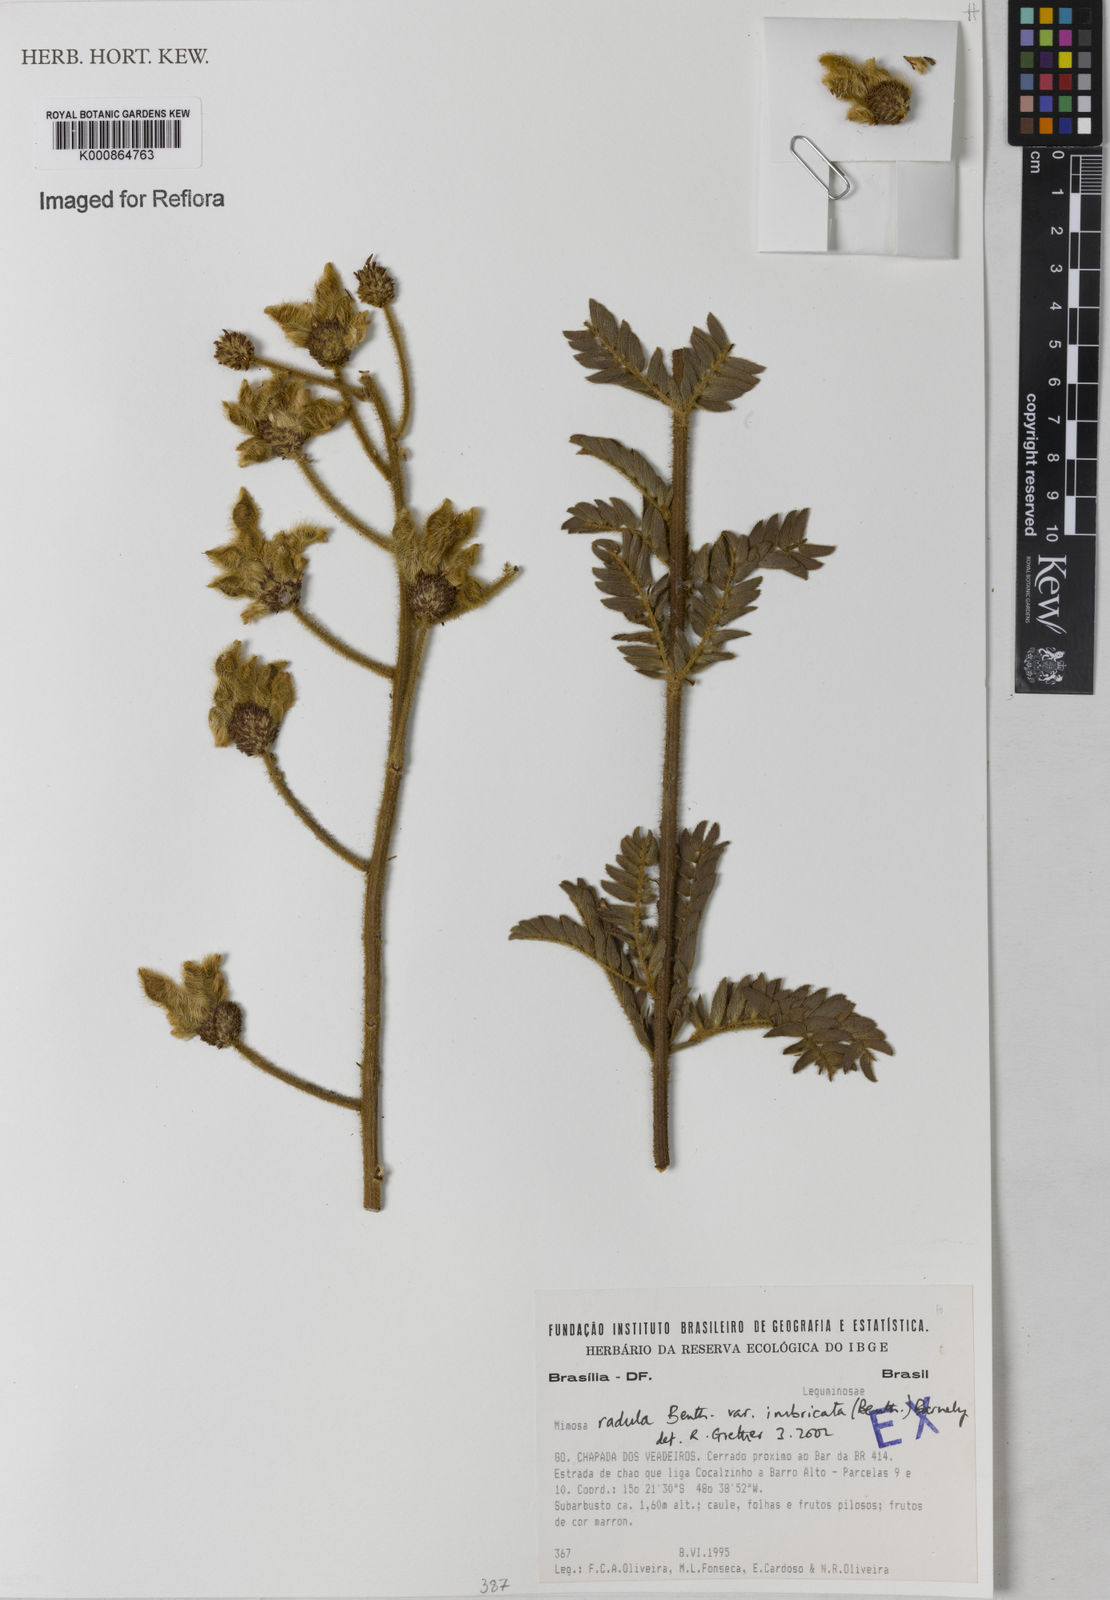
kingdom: Plantae
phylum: Tracheophyta
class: Magnoliopsida
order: Fabales
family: Fabaceae
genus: Mimosa
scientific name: Mimosa radula
